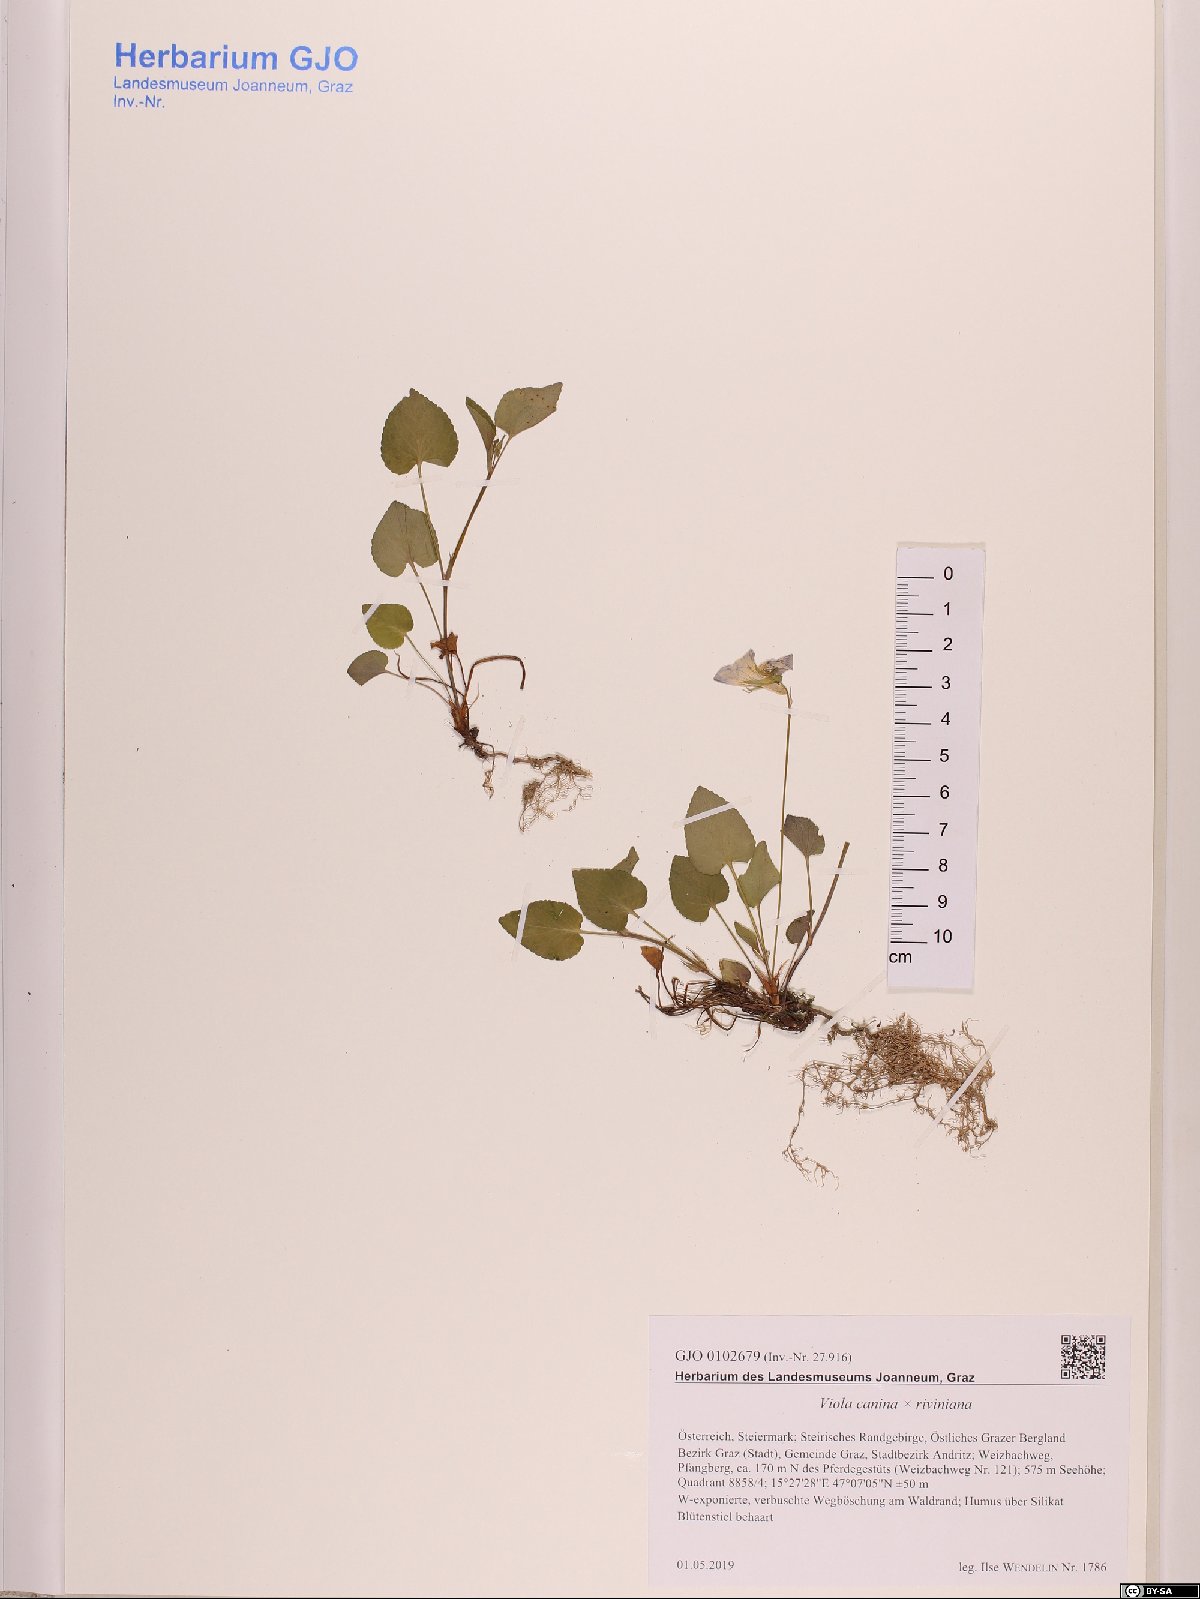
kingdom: Plantae
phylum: Tracheophyta
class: Magnoliopsida
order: Malpighiales
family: Violaceae
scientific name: Violaceae
